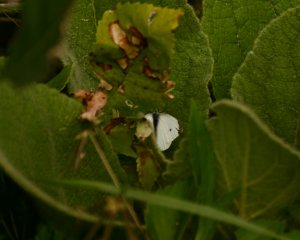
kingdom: Animalia
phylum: Arthropoda
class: Insecta
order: Lepidoptera
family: Pieridae
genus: Pieris
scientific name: Pieris rapae
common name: Cabbage White
